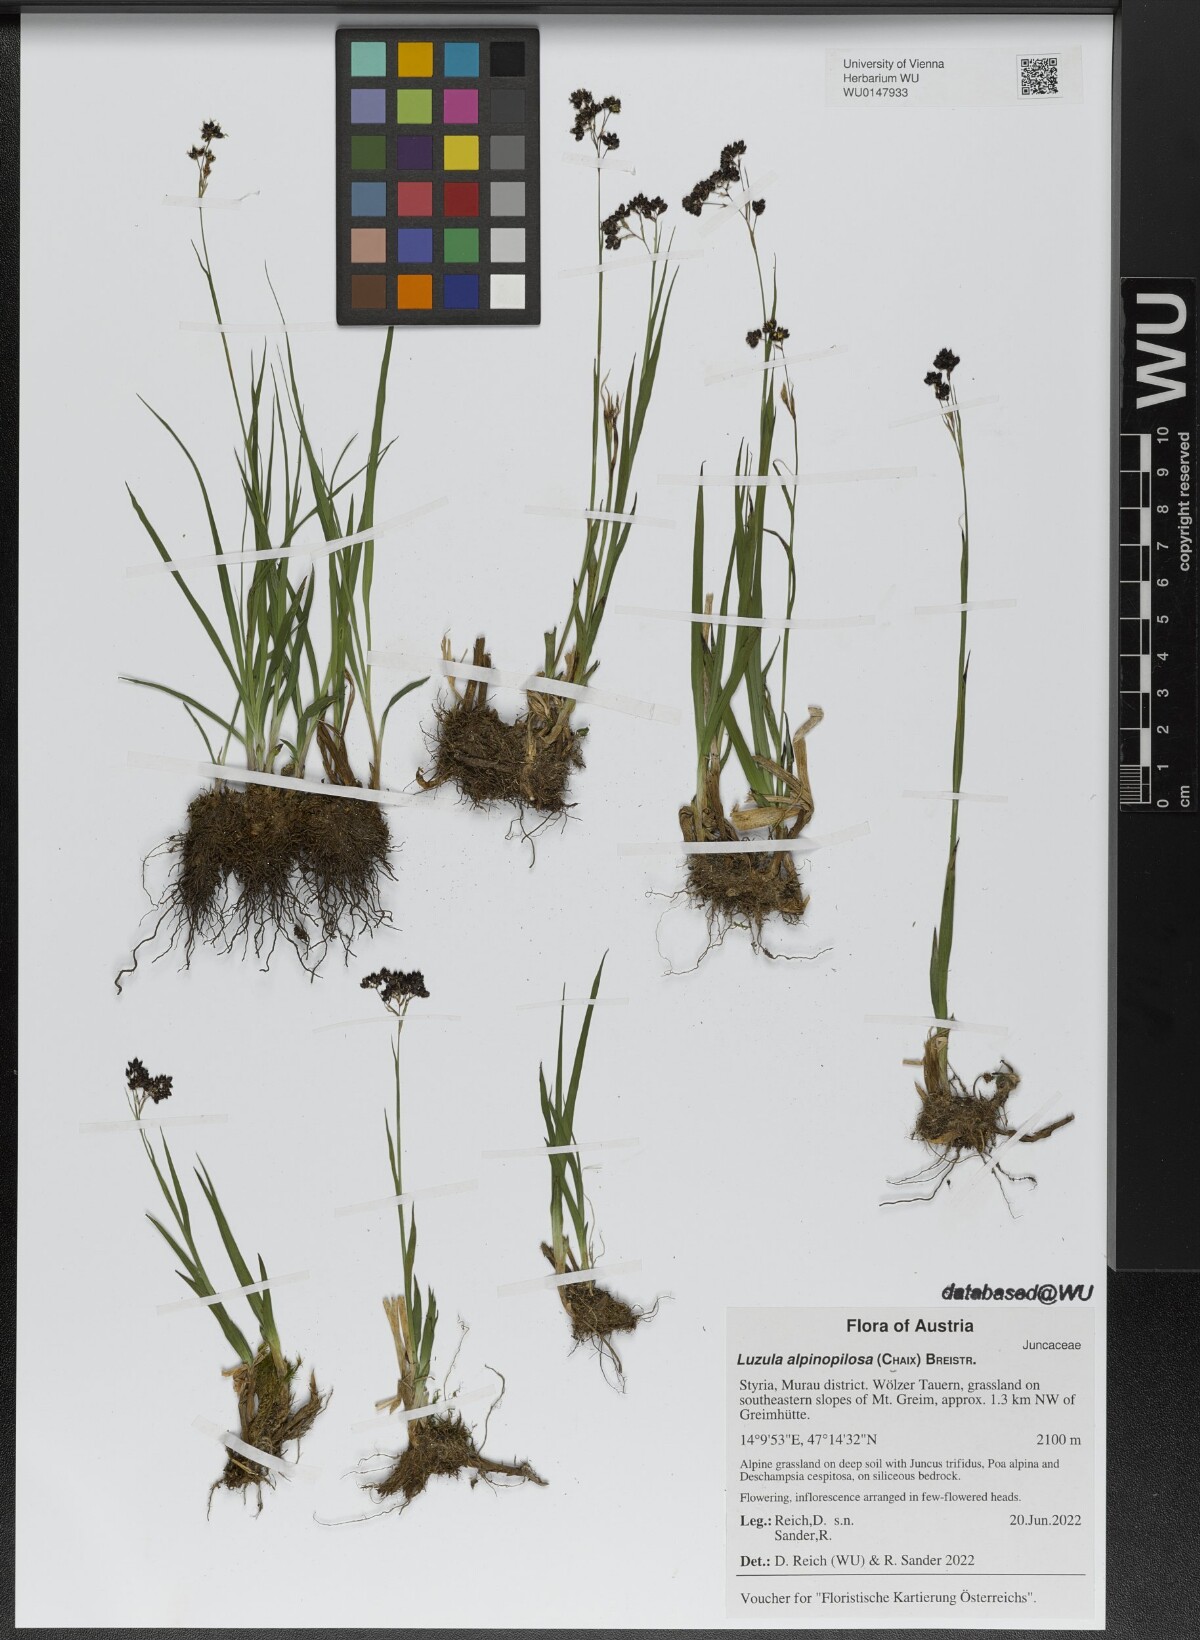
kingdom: Plantae
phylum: Tracheophyta
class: Liliopsida
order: Poales
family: Juncaceae
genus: Luzula
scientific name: Luzula alpinopilosa
